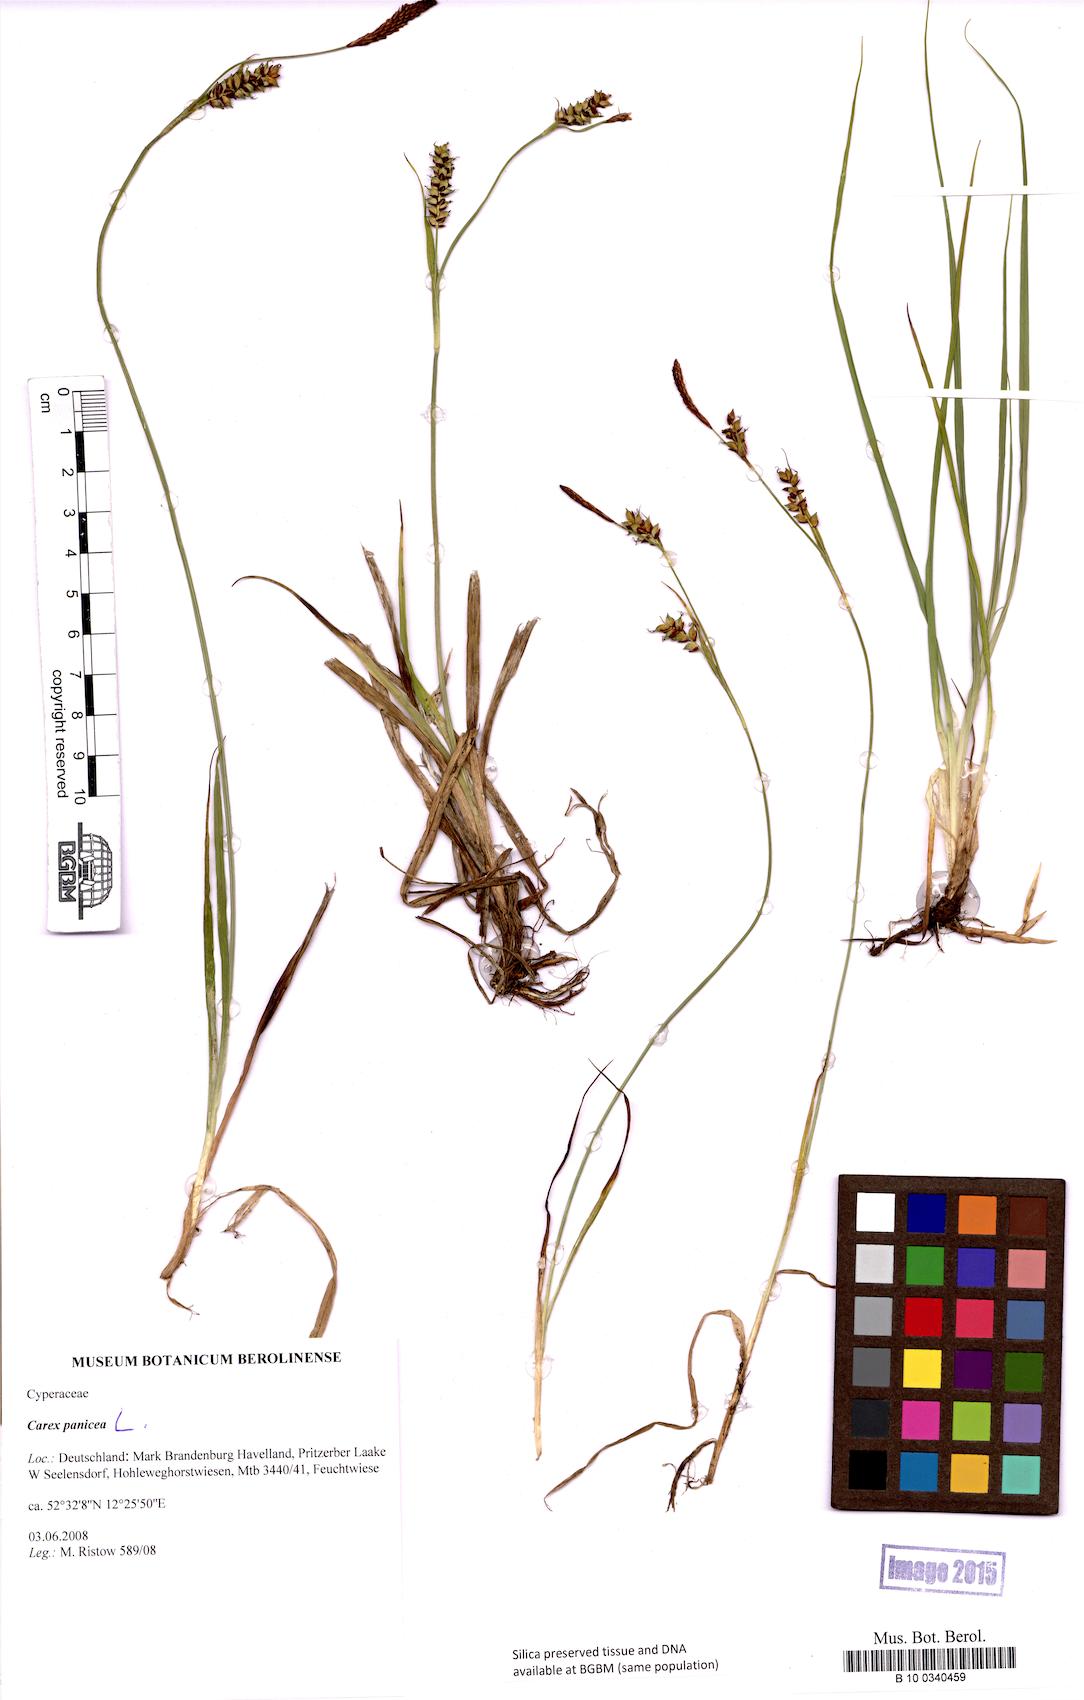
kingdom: Plantae
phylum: Tracheophyta
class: Liliopsida
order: Poales
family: Cyperaceae
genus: Carex
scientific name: Carex panicea
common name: Carnation sedge
